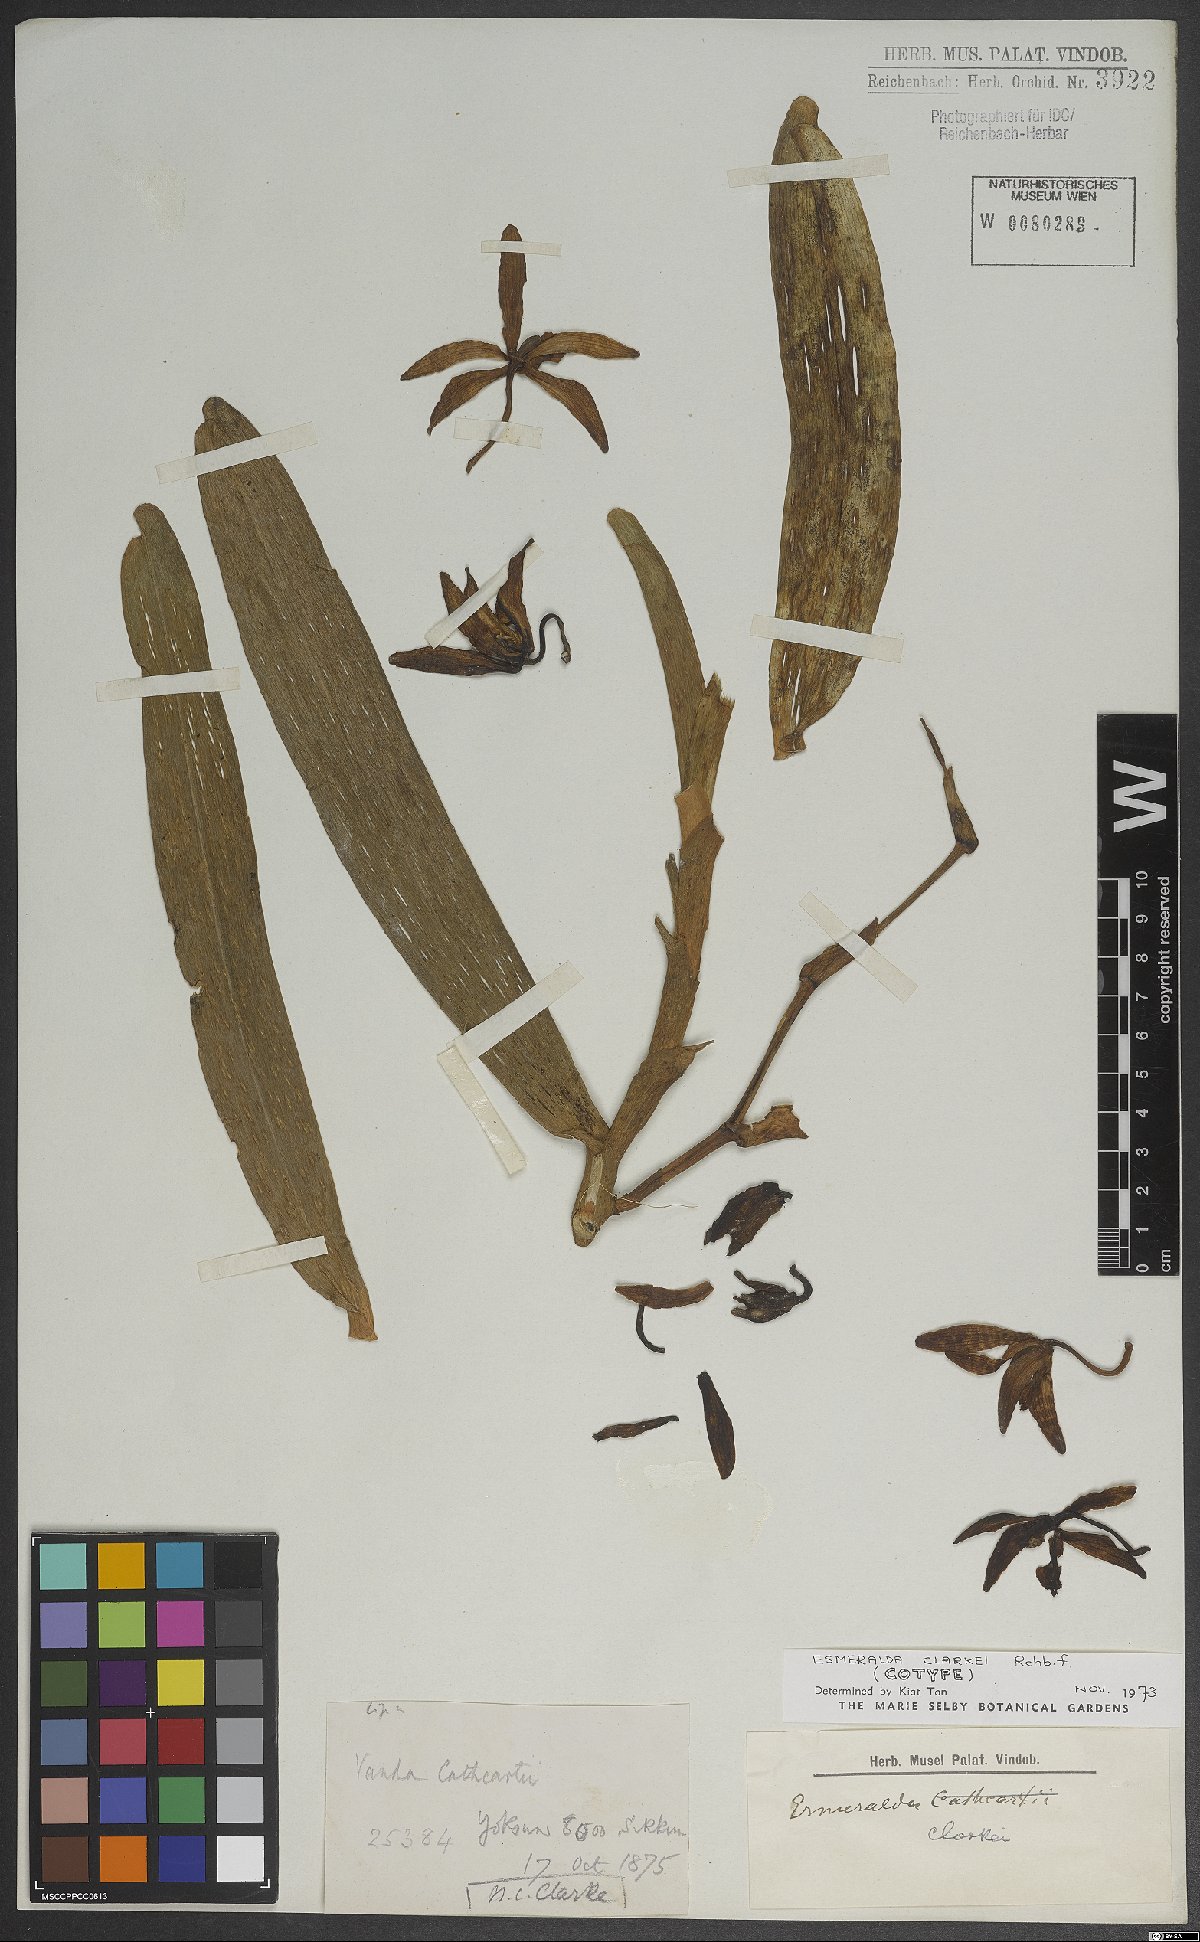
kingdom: Plantae
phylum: Tracheophyta
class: Liliopsida
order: Asparagales
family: Orchidaceae
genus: Arachnis
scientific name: Arachnis
